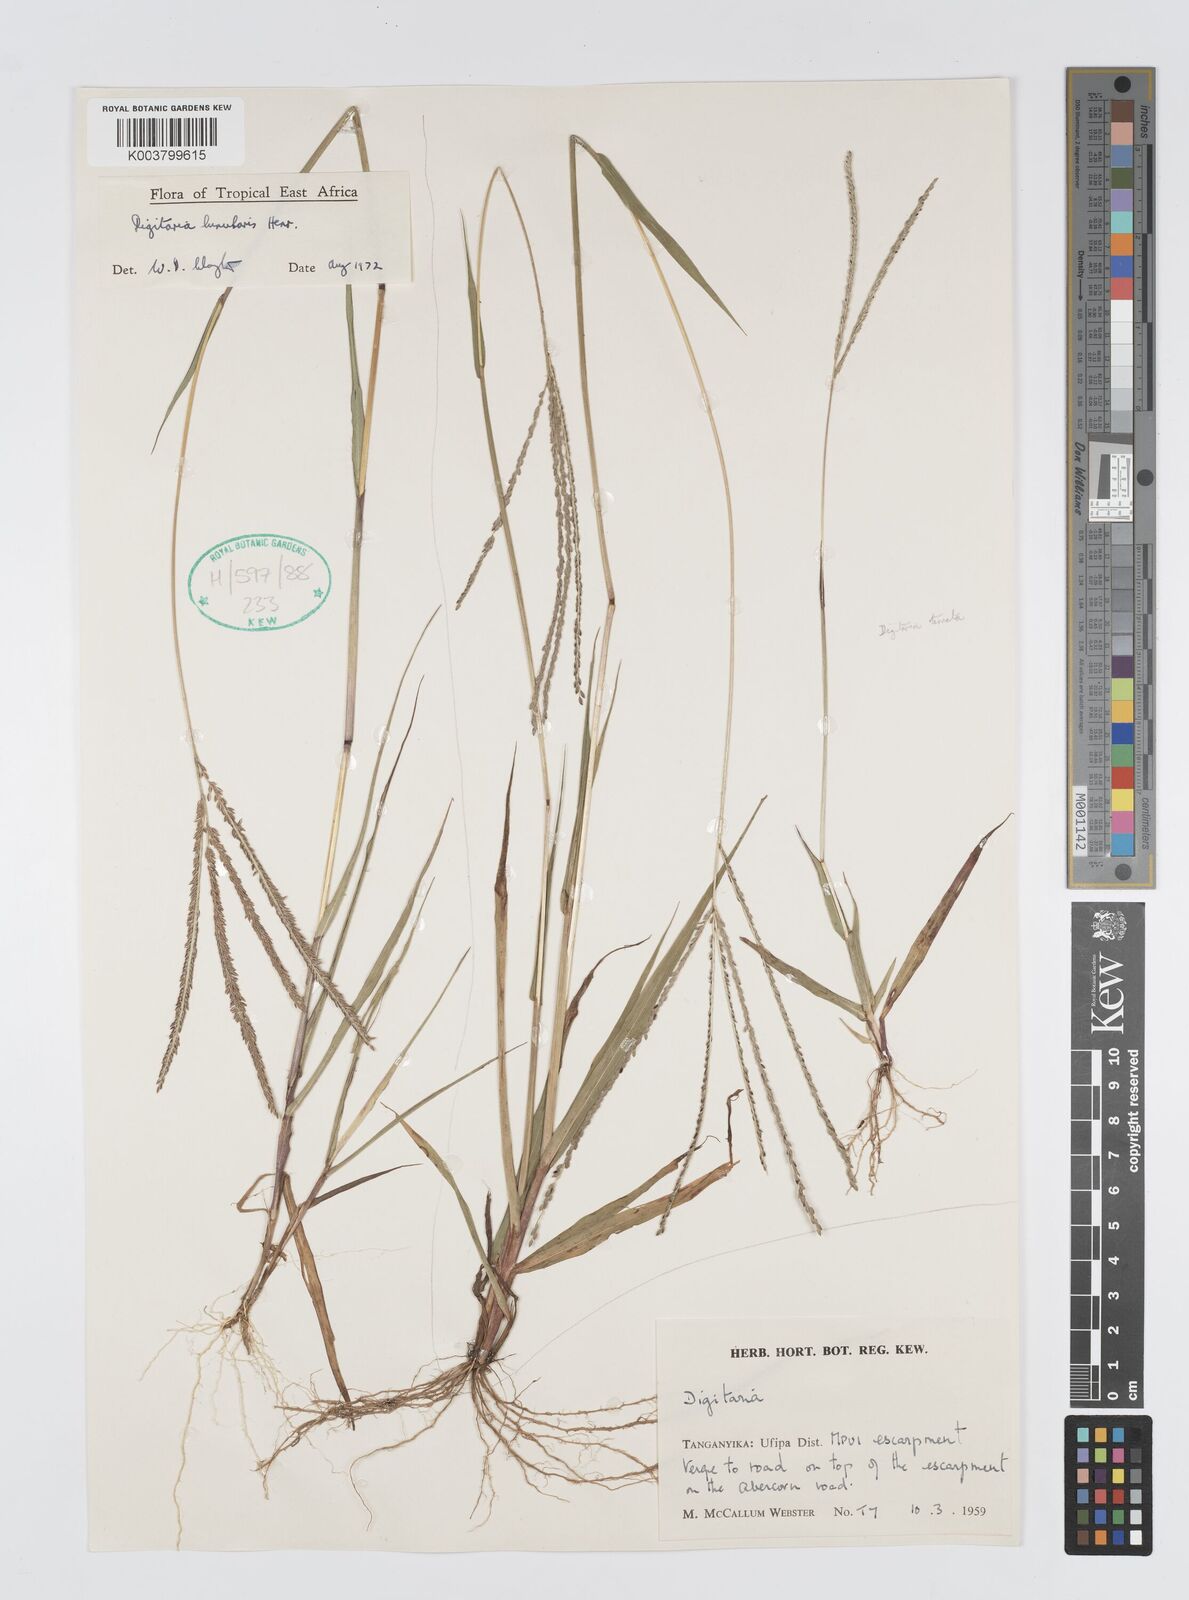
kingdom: Plantae
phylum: Tracheophyta
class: Liliopsida
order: Poales
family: Poaceae
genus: Digitaria
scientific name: Digitaria comifera
